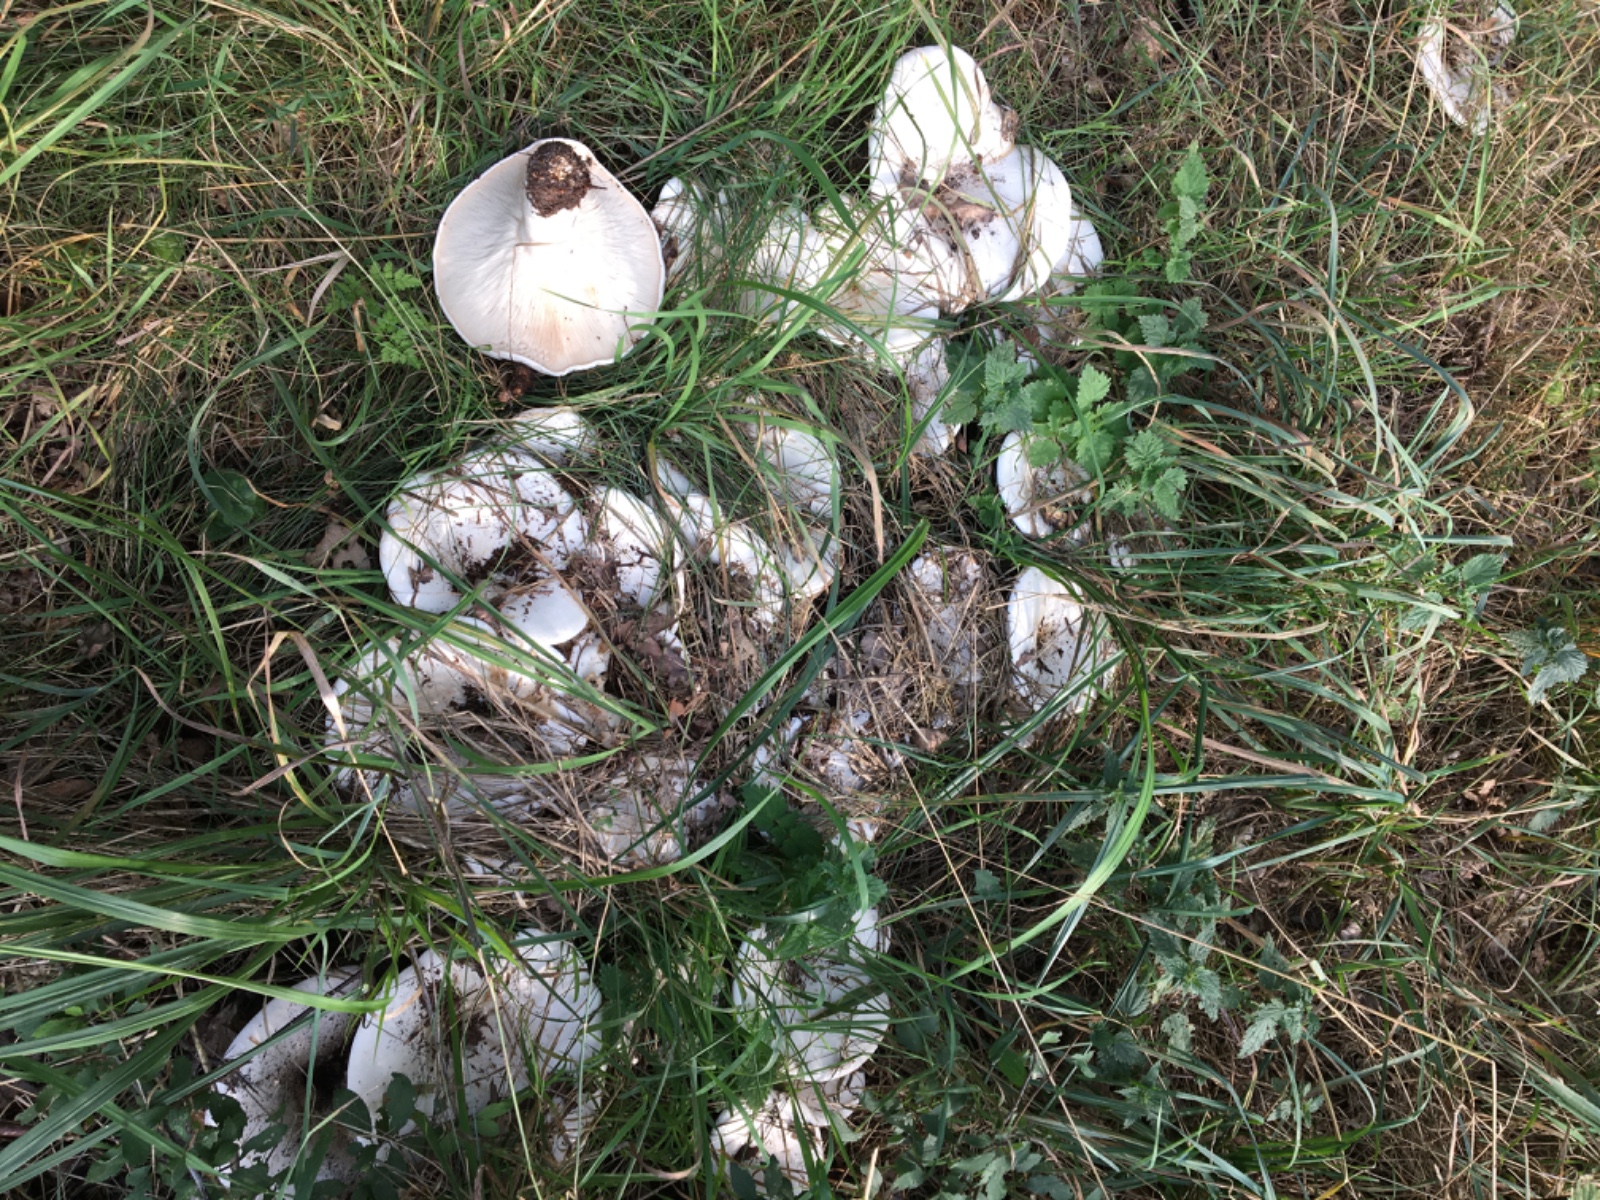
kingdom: Fungi
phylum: Basidiomycota
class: Agaricomycetes
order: Agaricales
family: Tricholomataceae
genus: Aspropaxillus
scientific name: Aspropaxillus giganteus
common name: kæmpe-tragtridderhat
